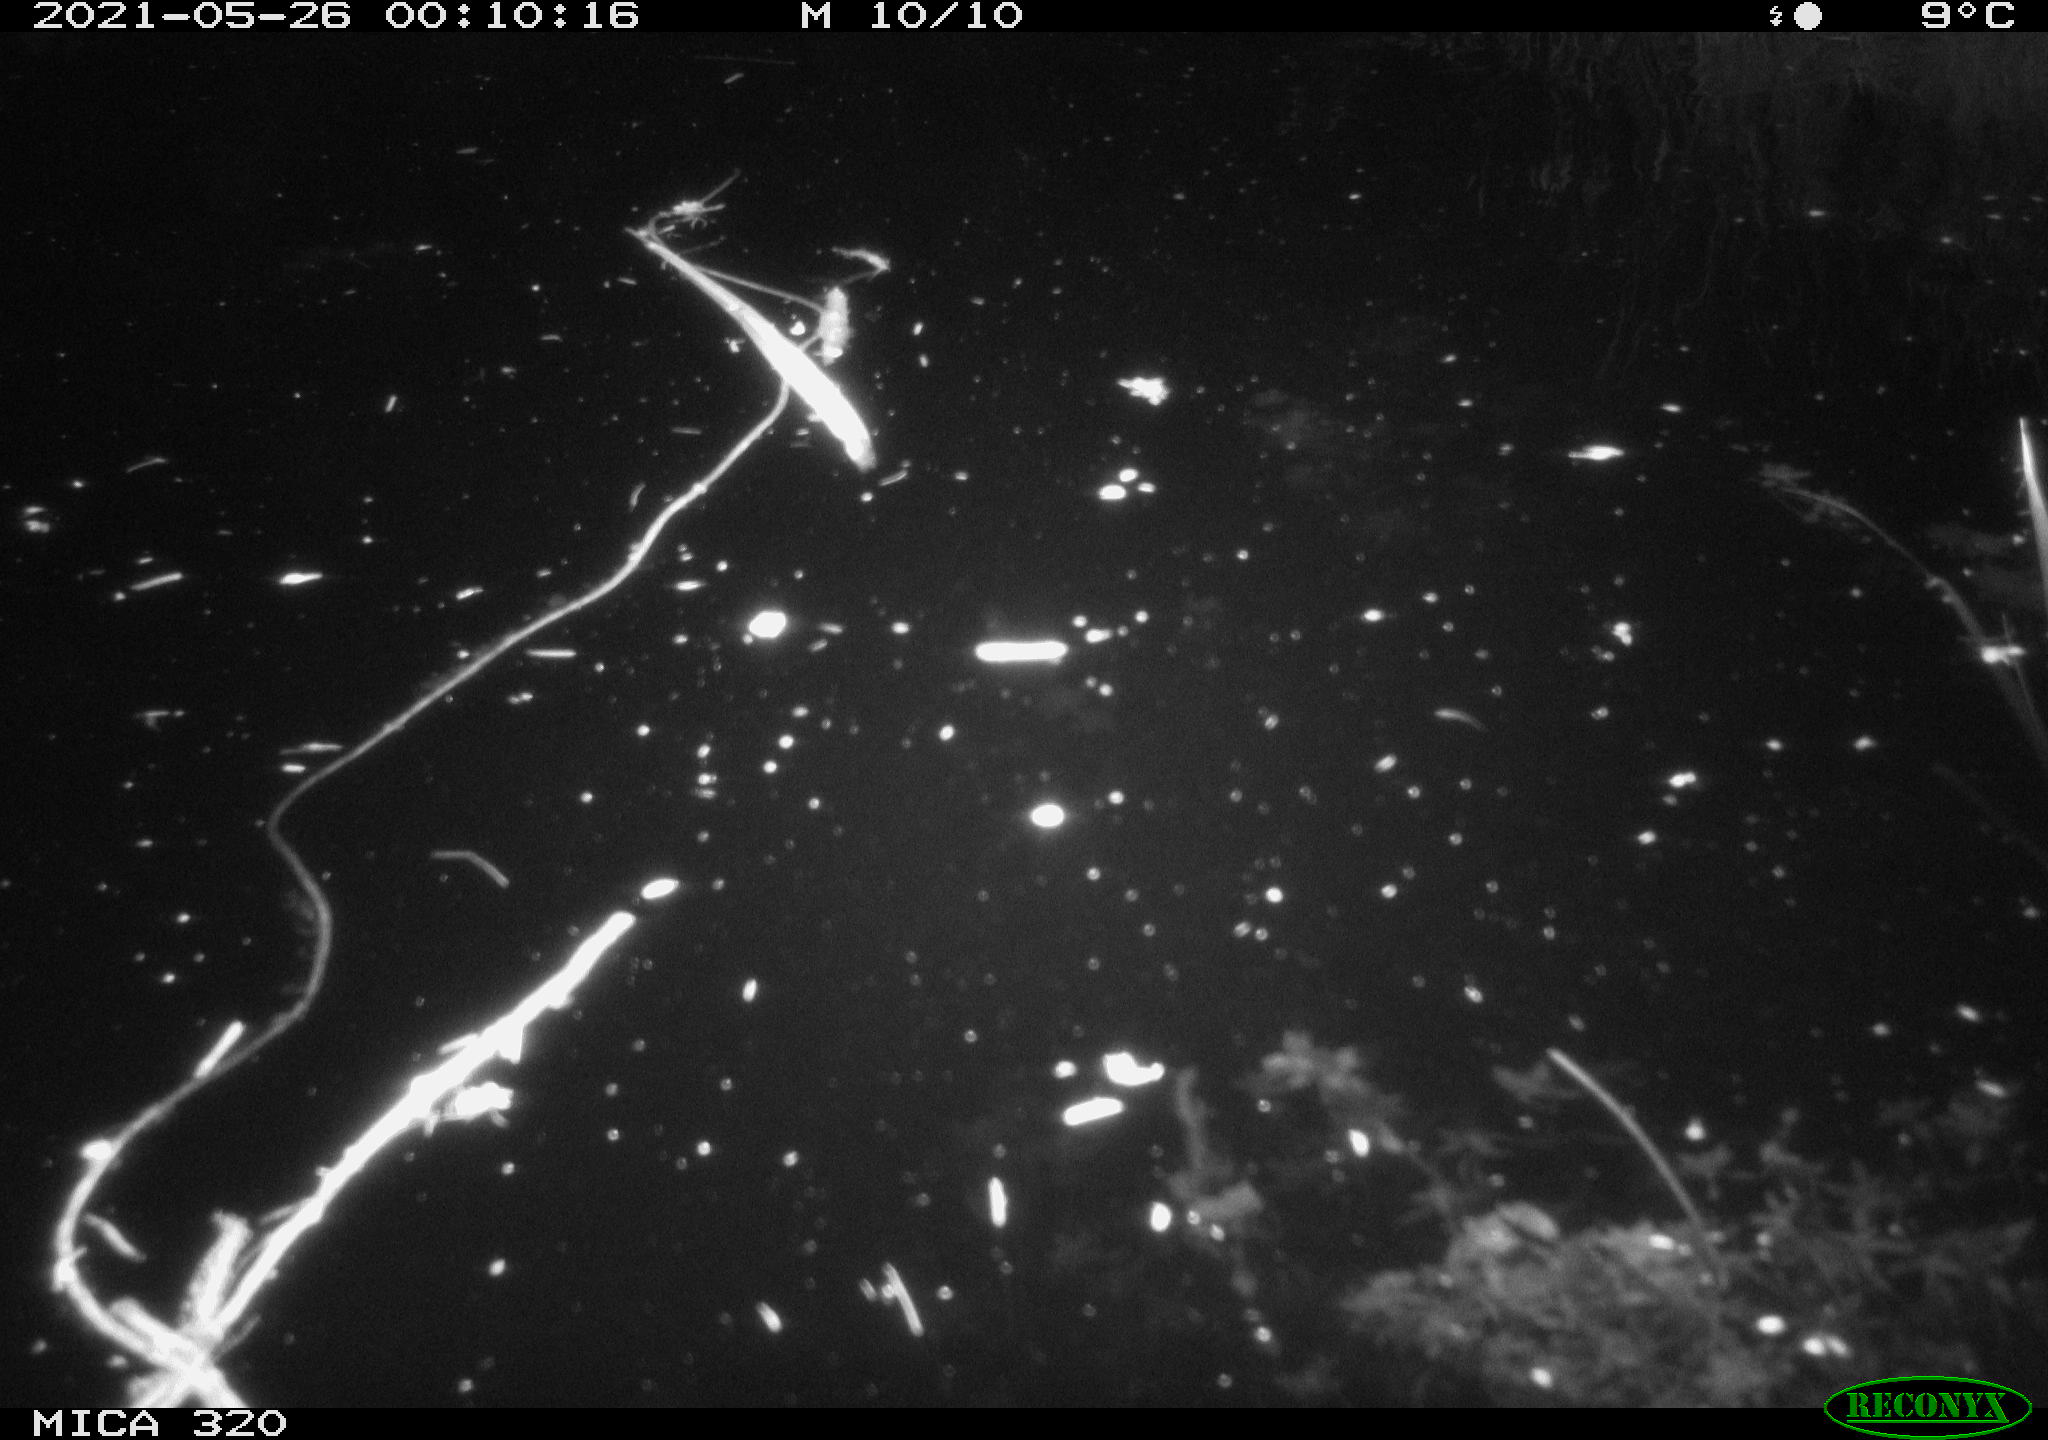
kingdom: Animalia
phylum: Chordata
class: Aves
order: Anseriformes
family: Anatidae
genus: Anas
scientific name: Anas platyrhynchos
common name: Mallard
